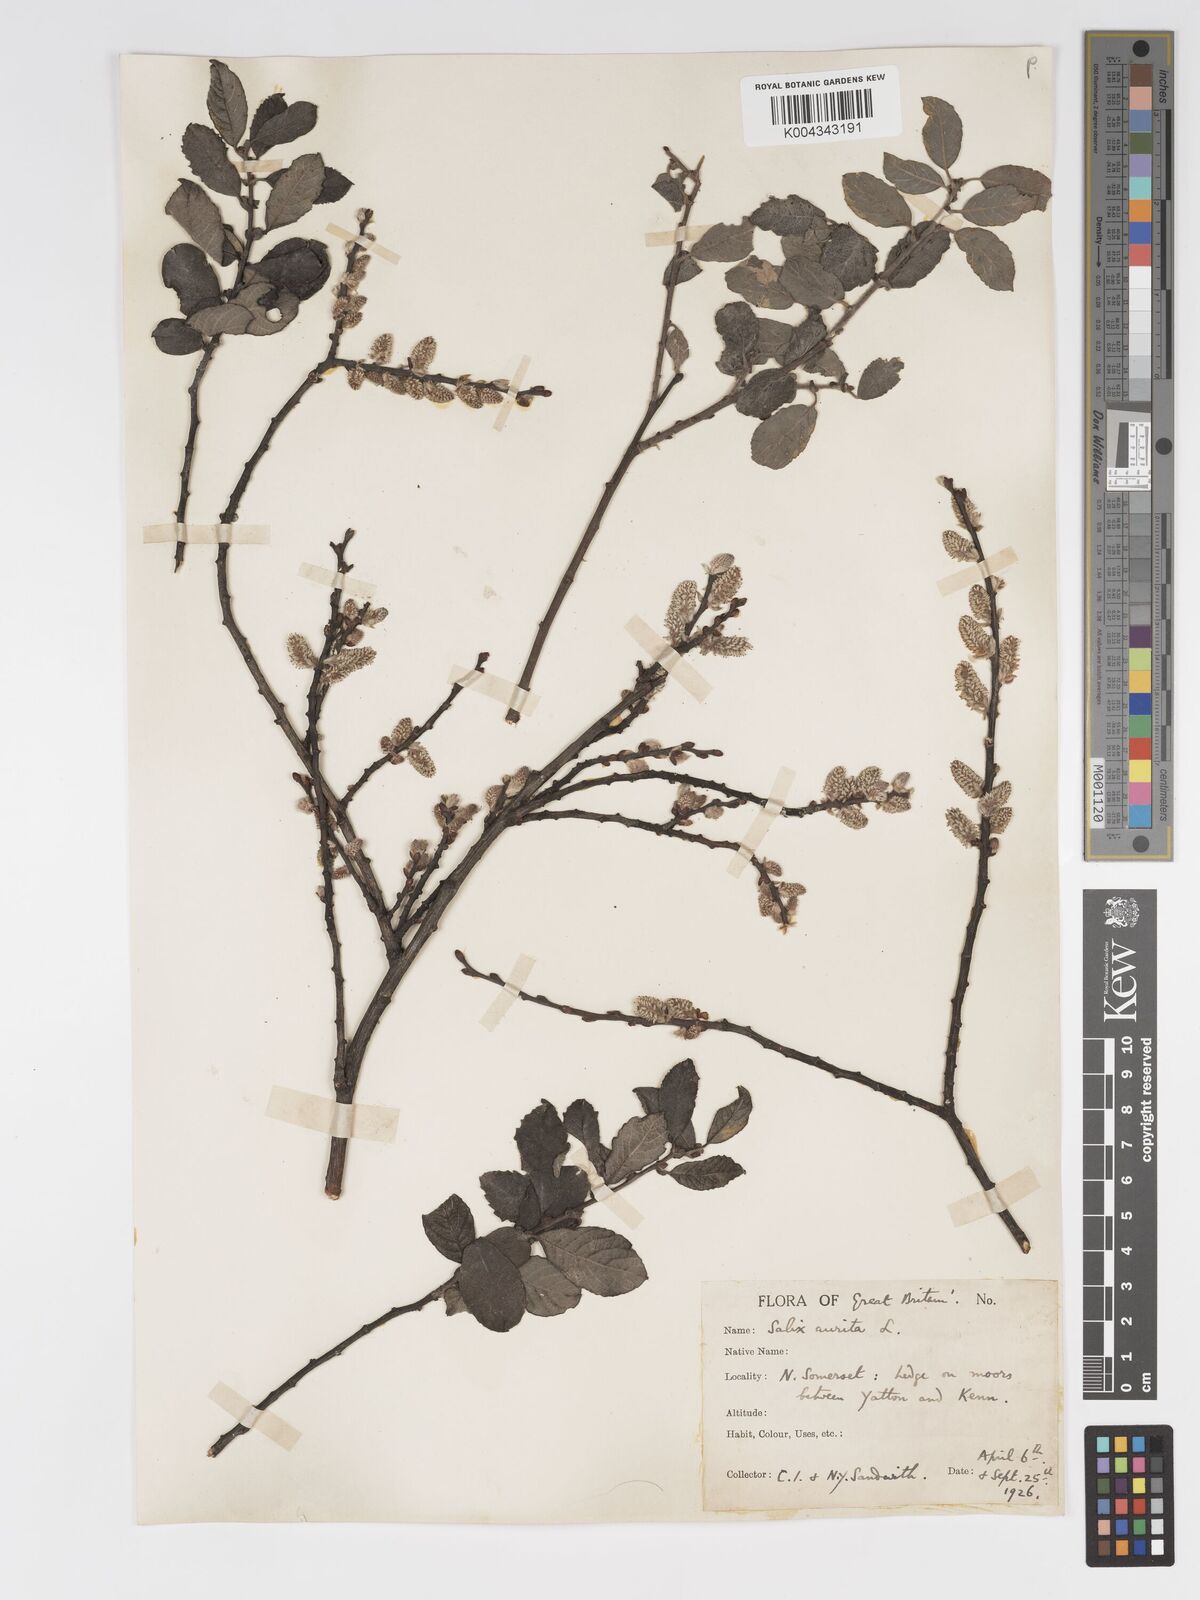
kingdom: Plantae
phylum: Tracheophyta
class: Magnoliopsida
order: Malpighiales
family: Salicaceae
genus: Salix
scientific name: Salix aurita
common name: Eared willow
